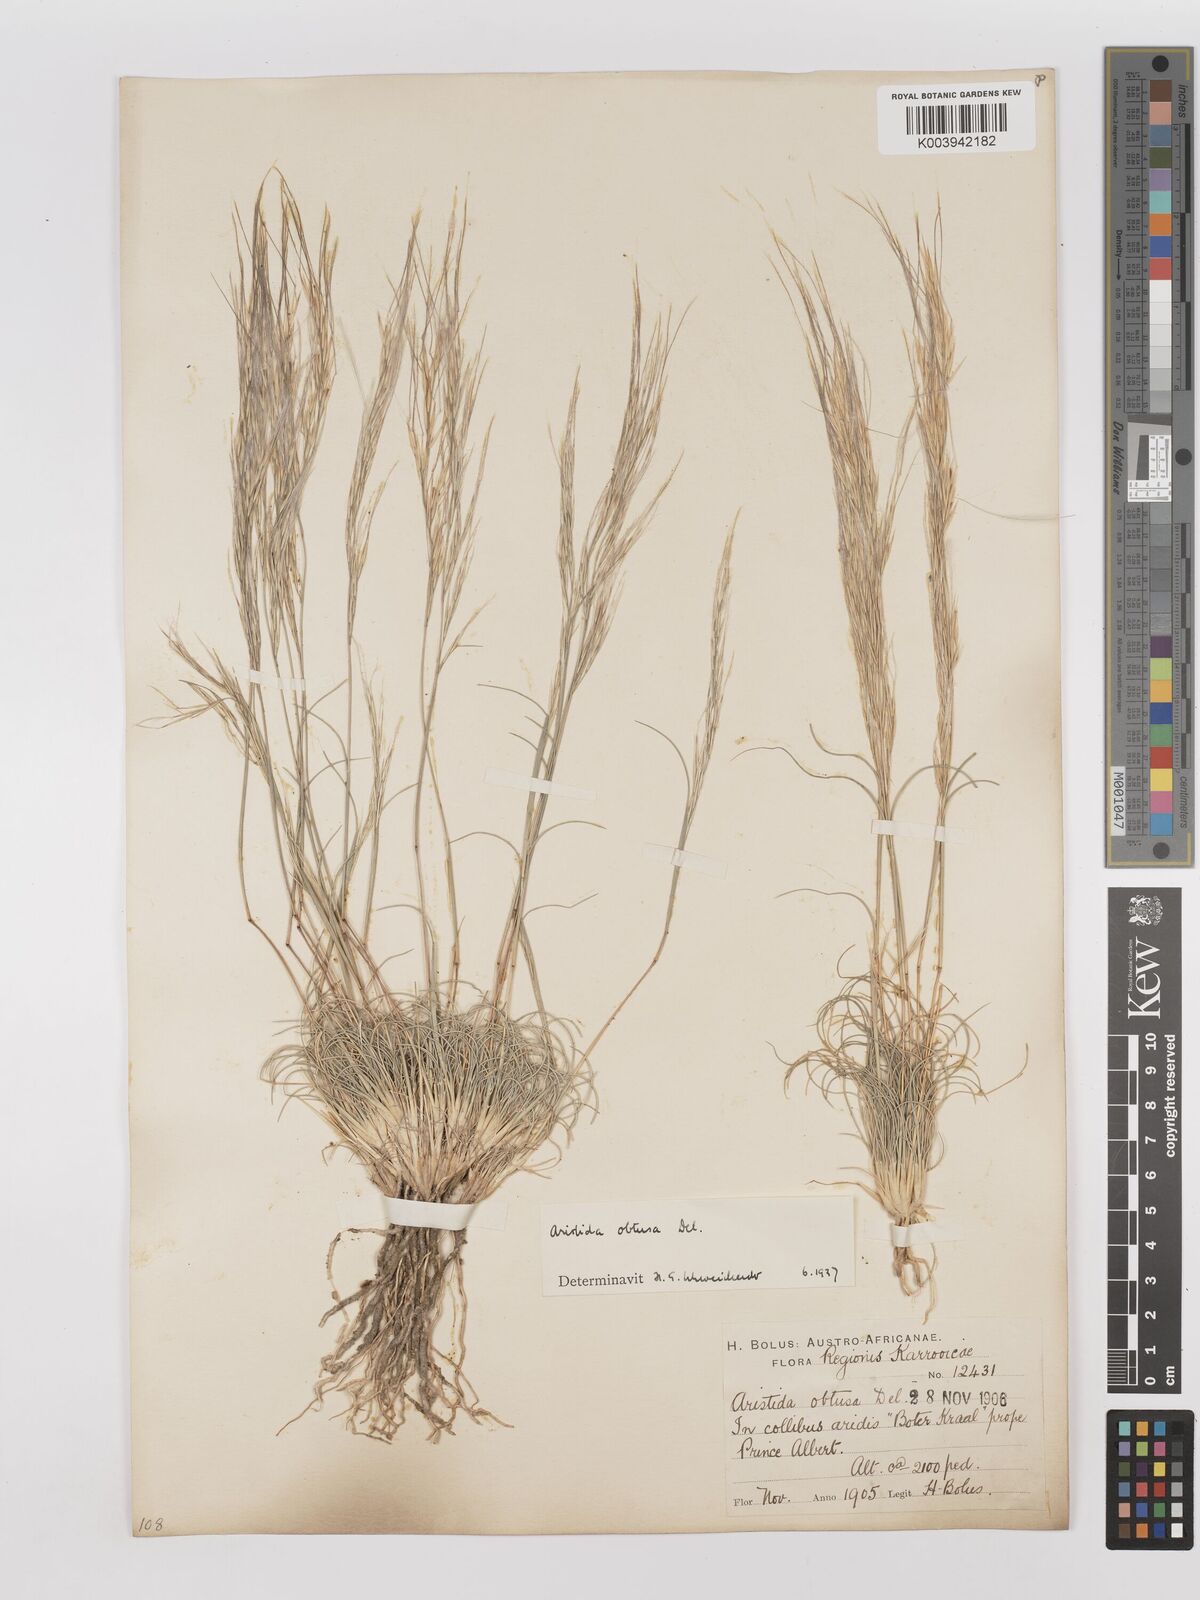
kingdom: Plantae
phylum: Tracheophyta
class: Liliopsida
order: Poales
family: Poaceae
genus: Stipagrostis
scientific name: Stipagrostis obtusa
